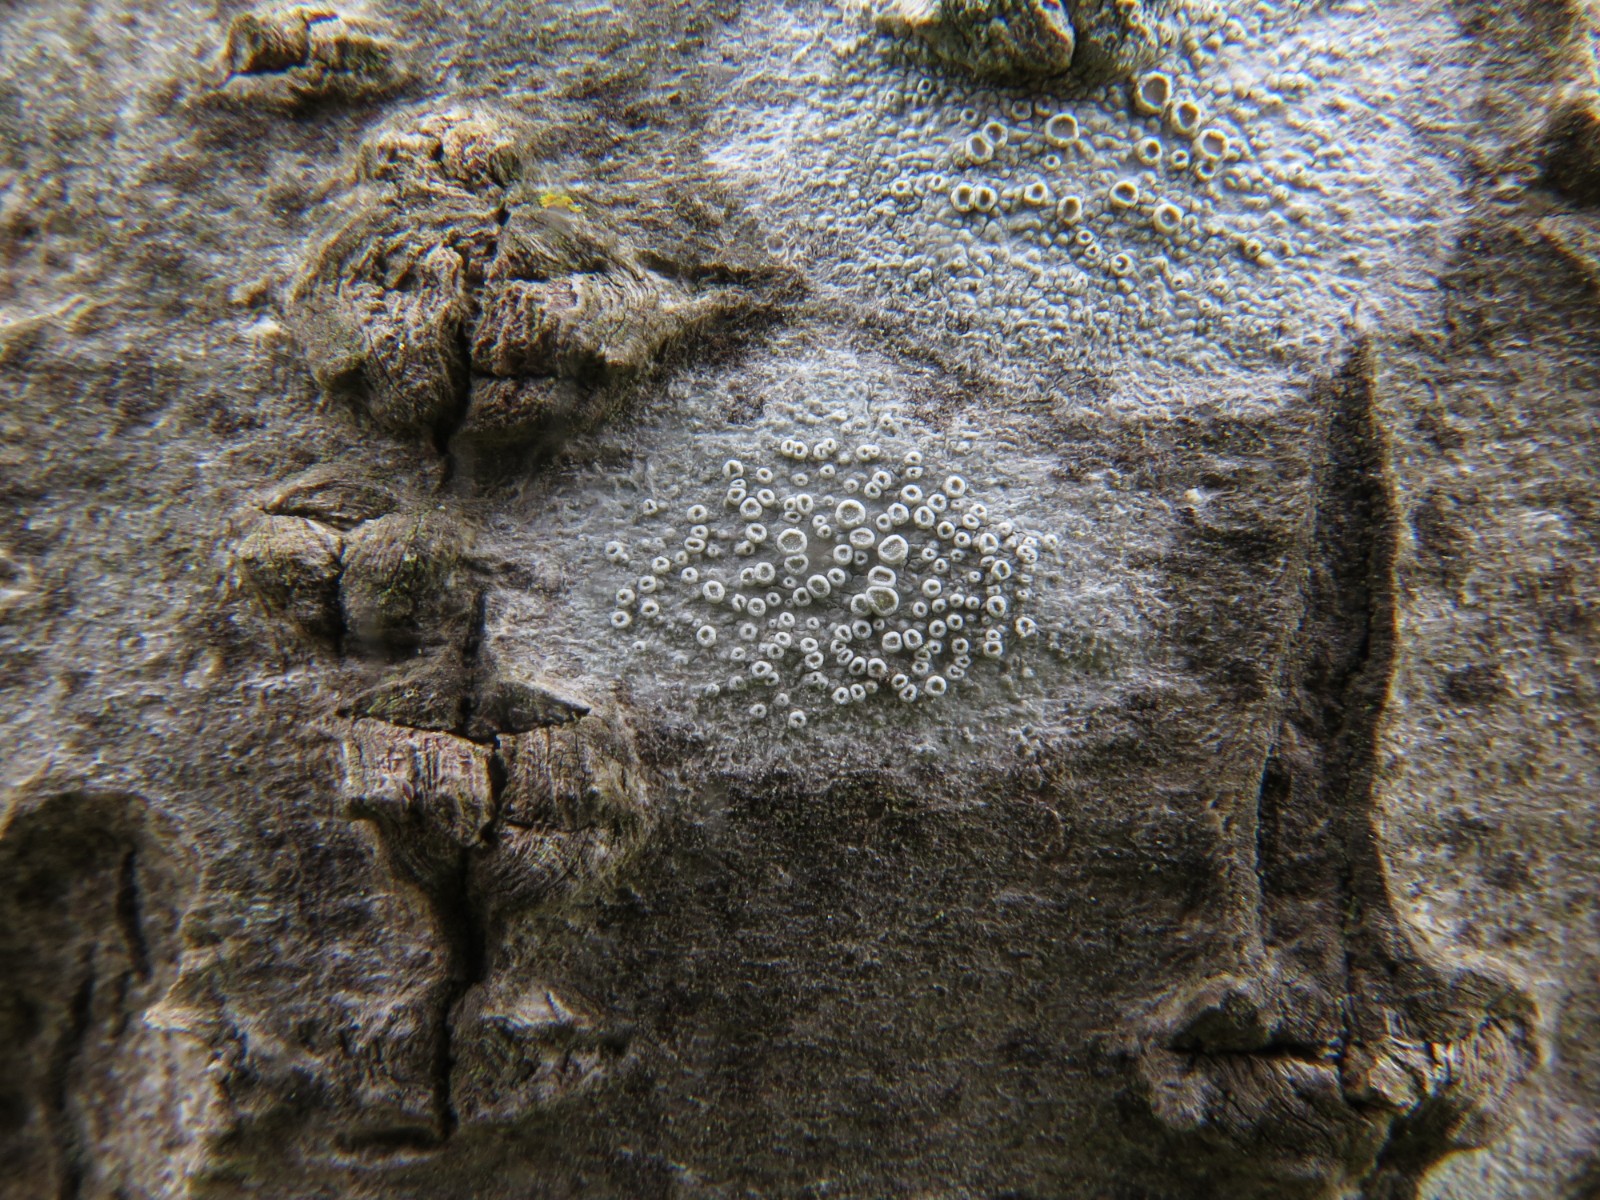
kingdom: Fungi
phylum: Ascomycota
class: Lecanoromycetes
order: Lecanorales
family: Lecanoraceae
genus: Glaucomaria
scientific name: Glaucomaria carpinea
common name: hviddugget kantskivelav
